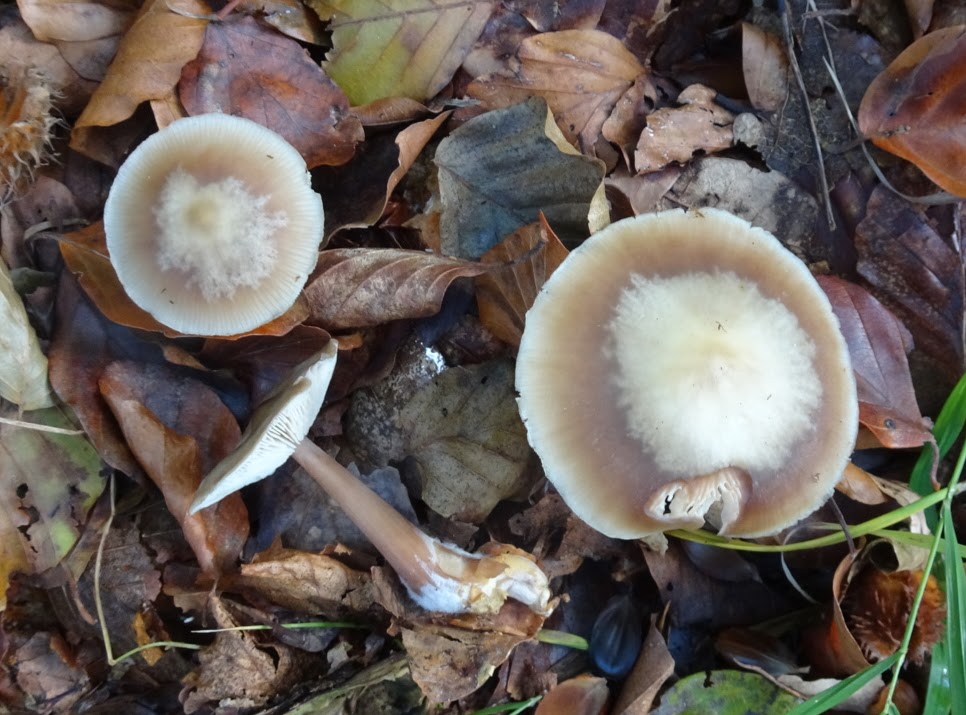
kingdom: Fungi
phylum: Basidiomycota
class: Agaricomycetes
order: Agaricales
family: Omphalotaceae
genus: Rhodocollybia
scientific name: Rhodocollybia asema
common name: horngrå fladhat
